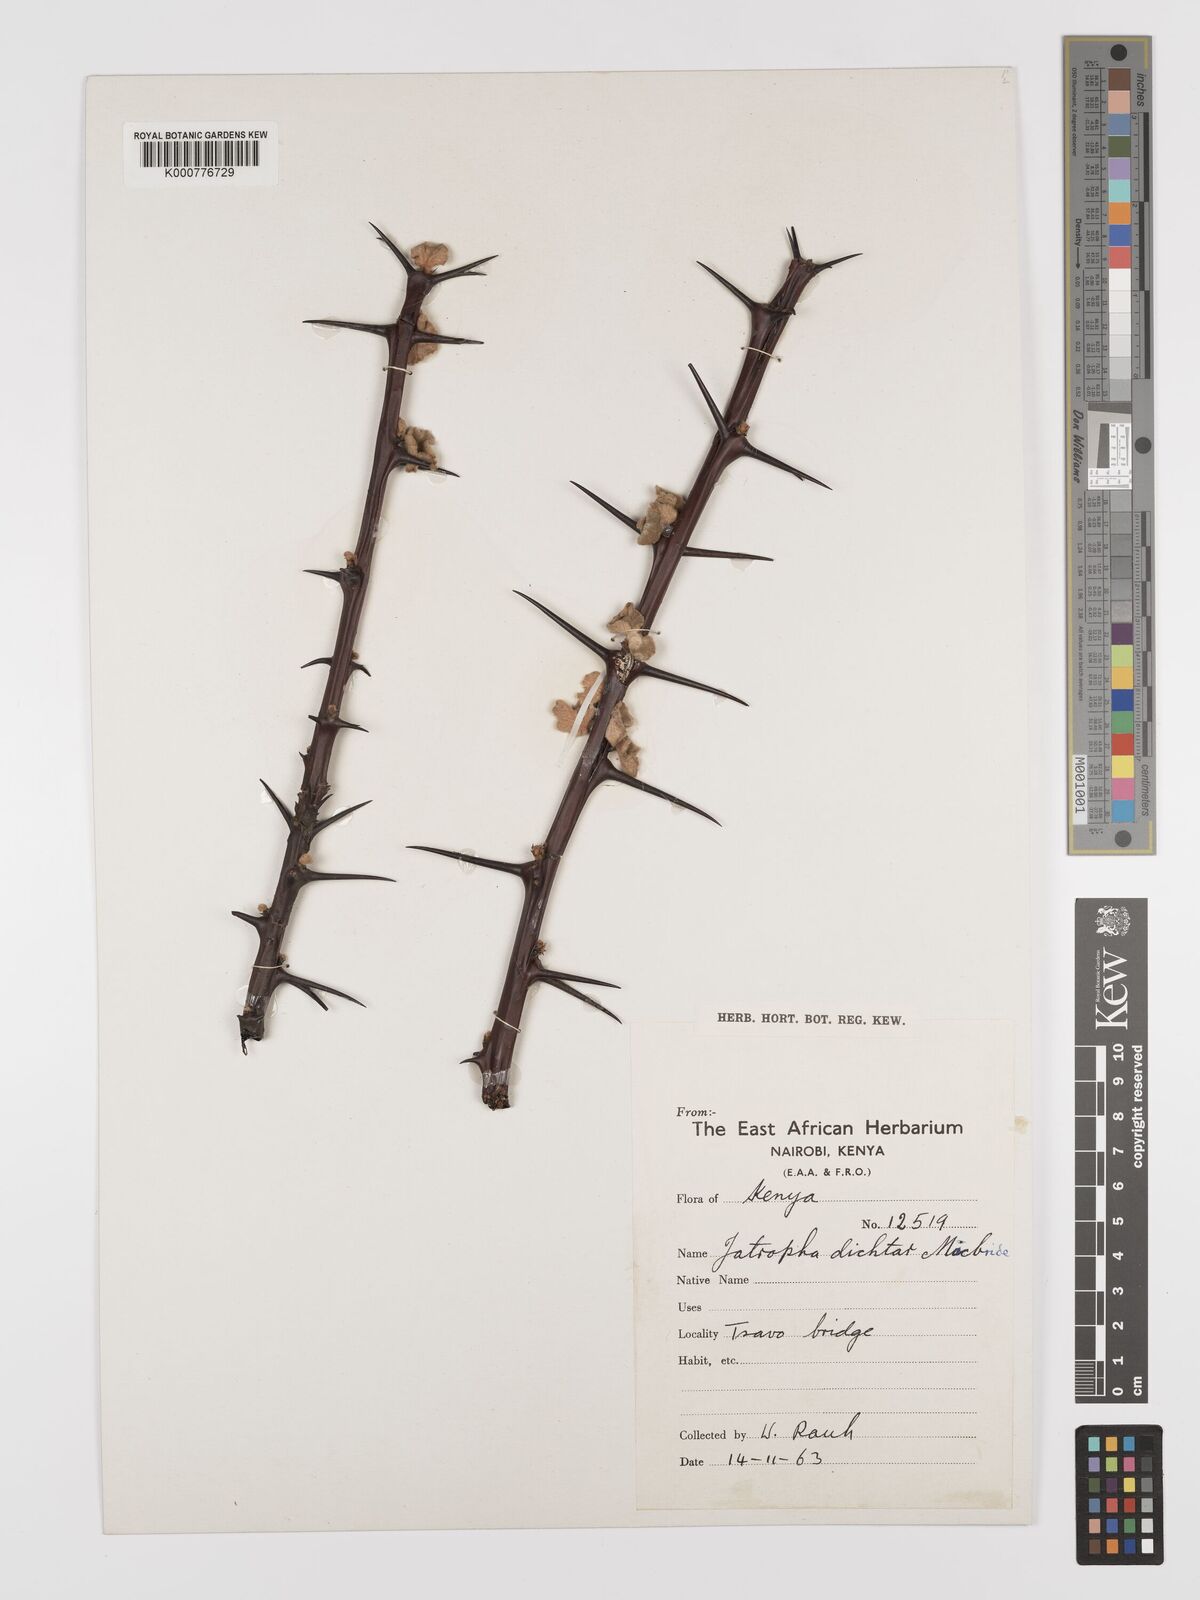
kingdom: Plantae
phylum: Tracheophyta
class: Magnoliopsida
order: Malpighiales
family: Euphorbiaceae
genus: Jatropha
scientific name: Jatropha dichtar
